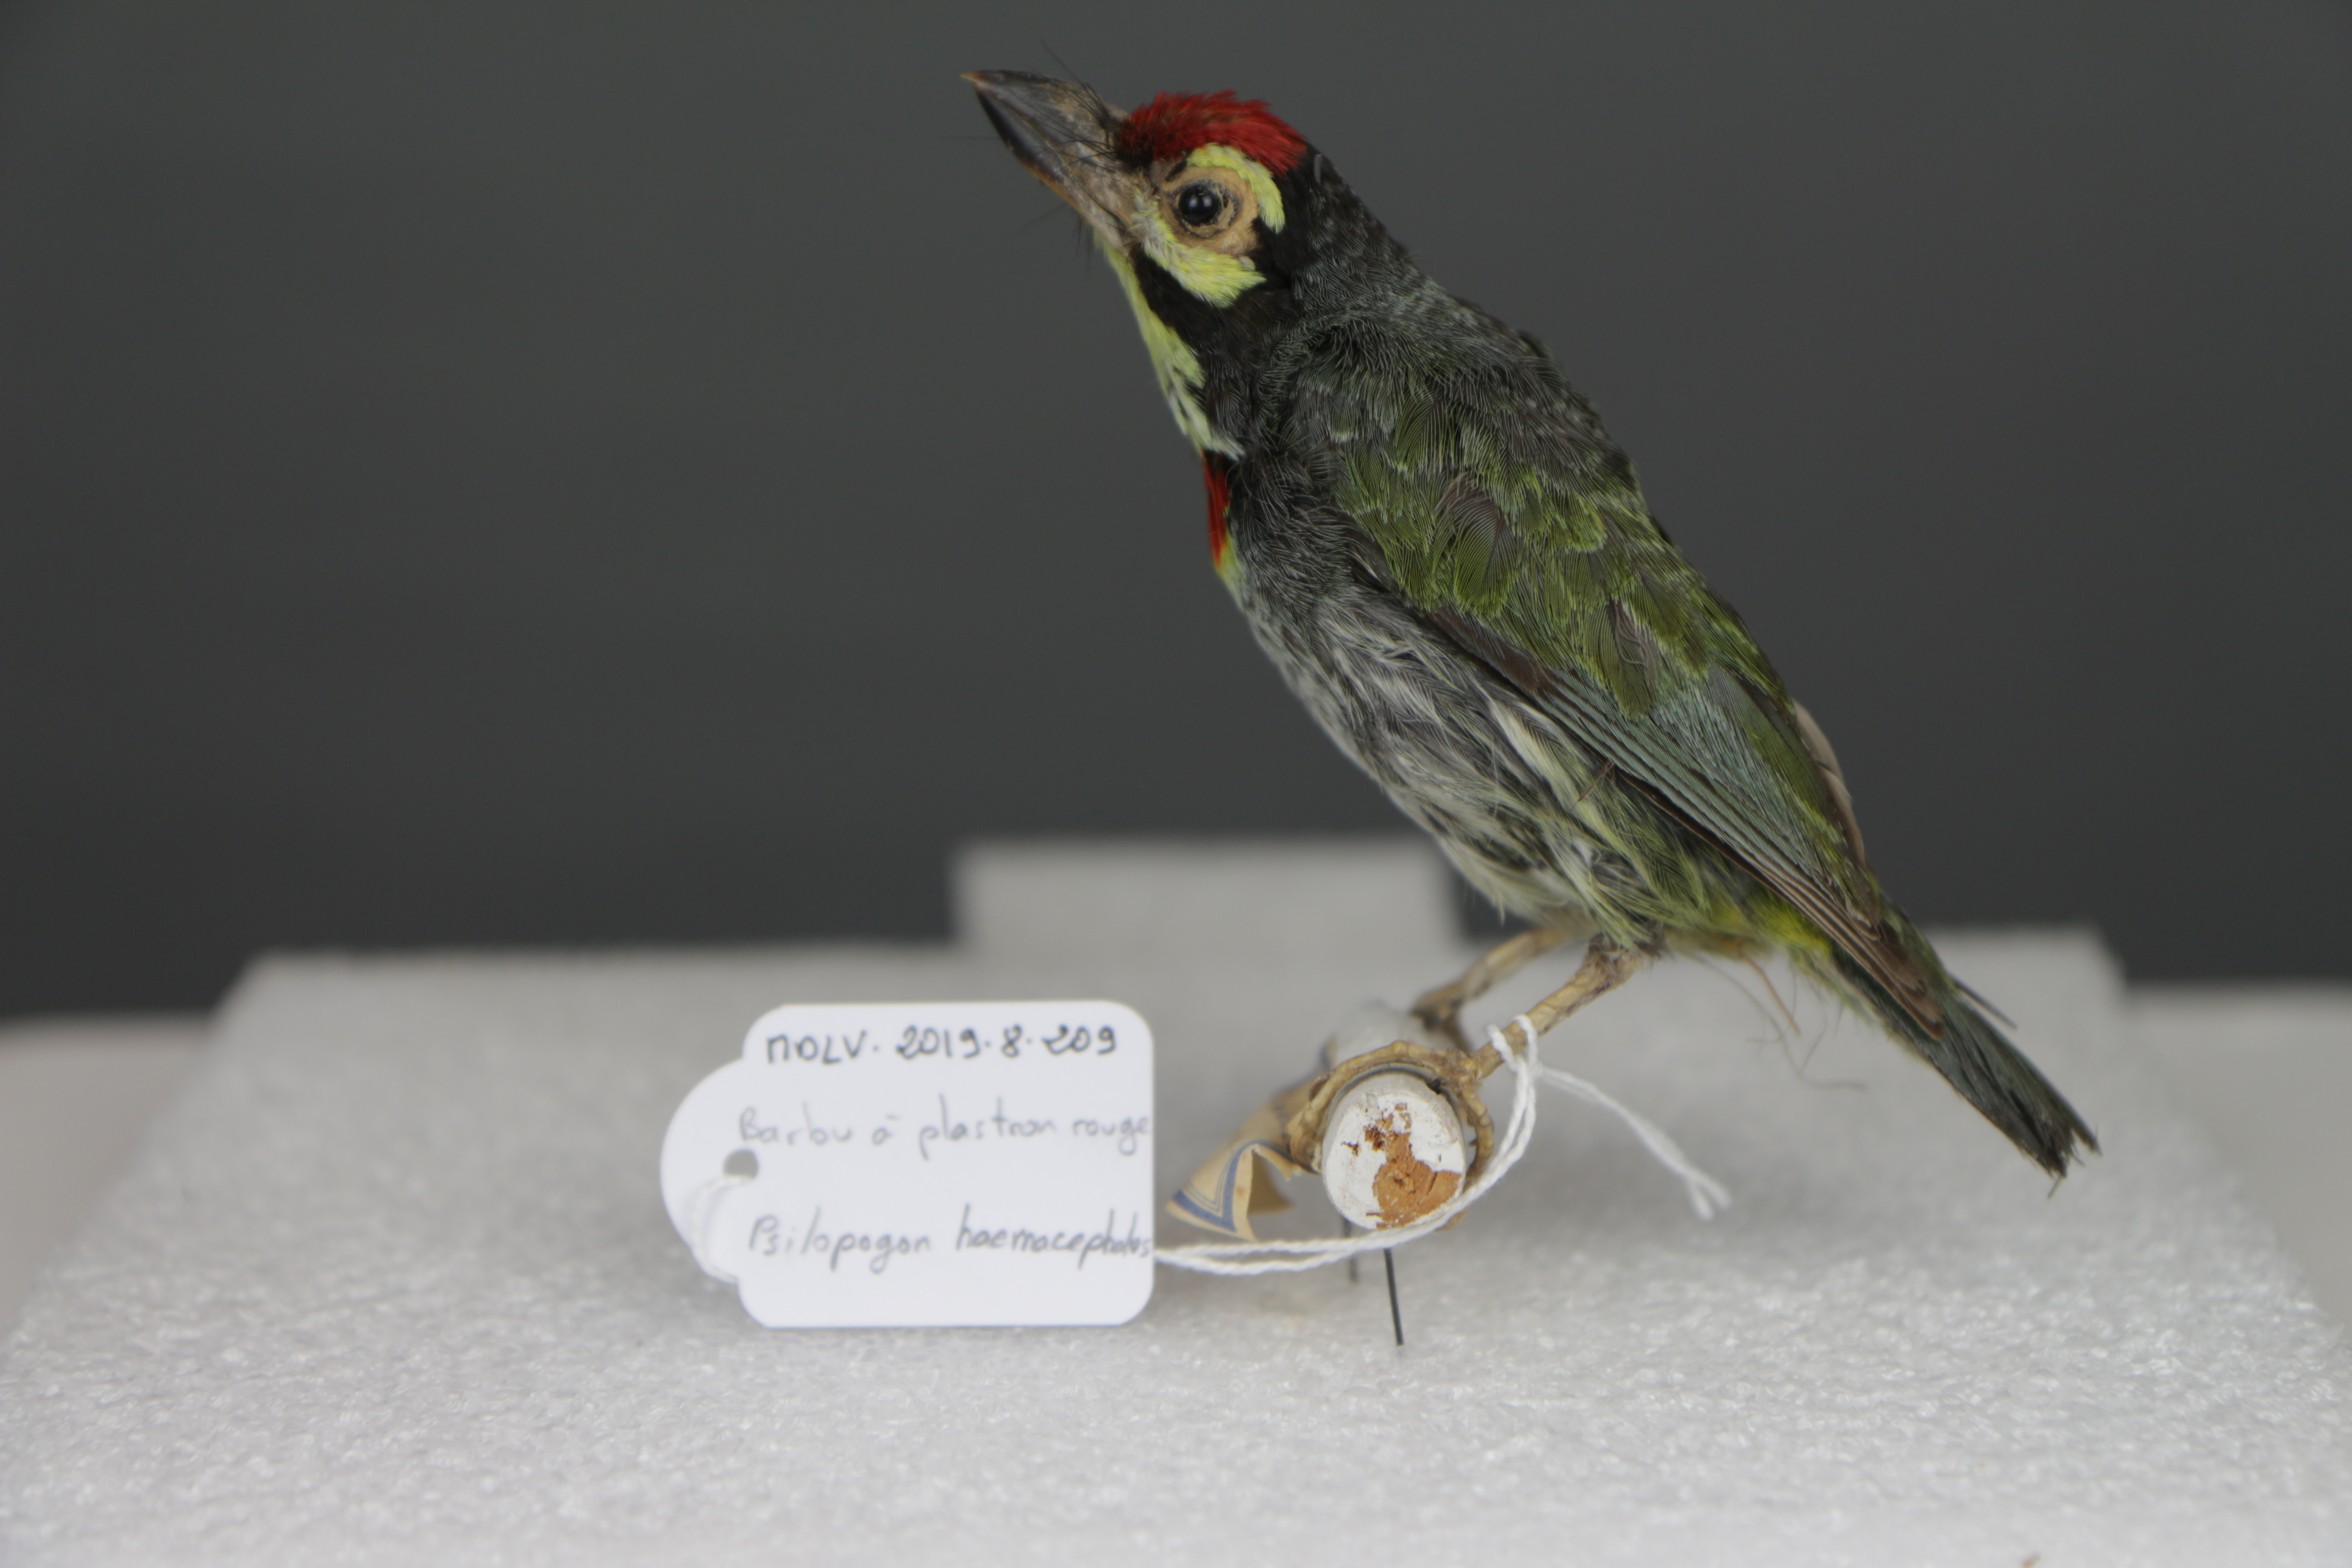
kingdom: Animalia
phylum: Chordata
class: Aves
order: Piciformes
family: Megalaimidae
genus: Psilopogon
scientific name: Psilopogon haemacephalus
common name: Coppersmith barbet
